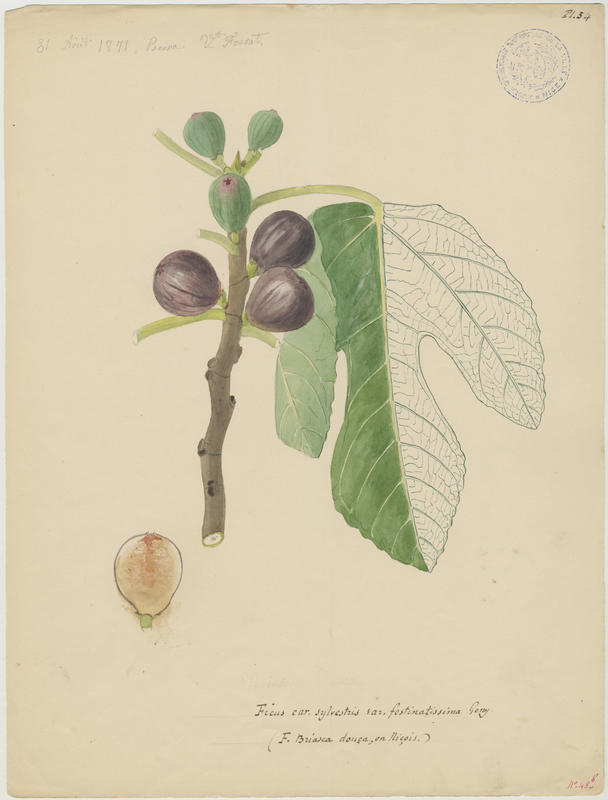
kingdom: Plantae
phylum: Tracheophyta
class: Magnoliopsida
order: Rosales
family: Moraceae
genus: Ficus
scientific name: Ficus carica
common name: Fig
